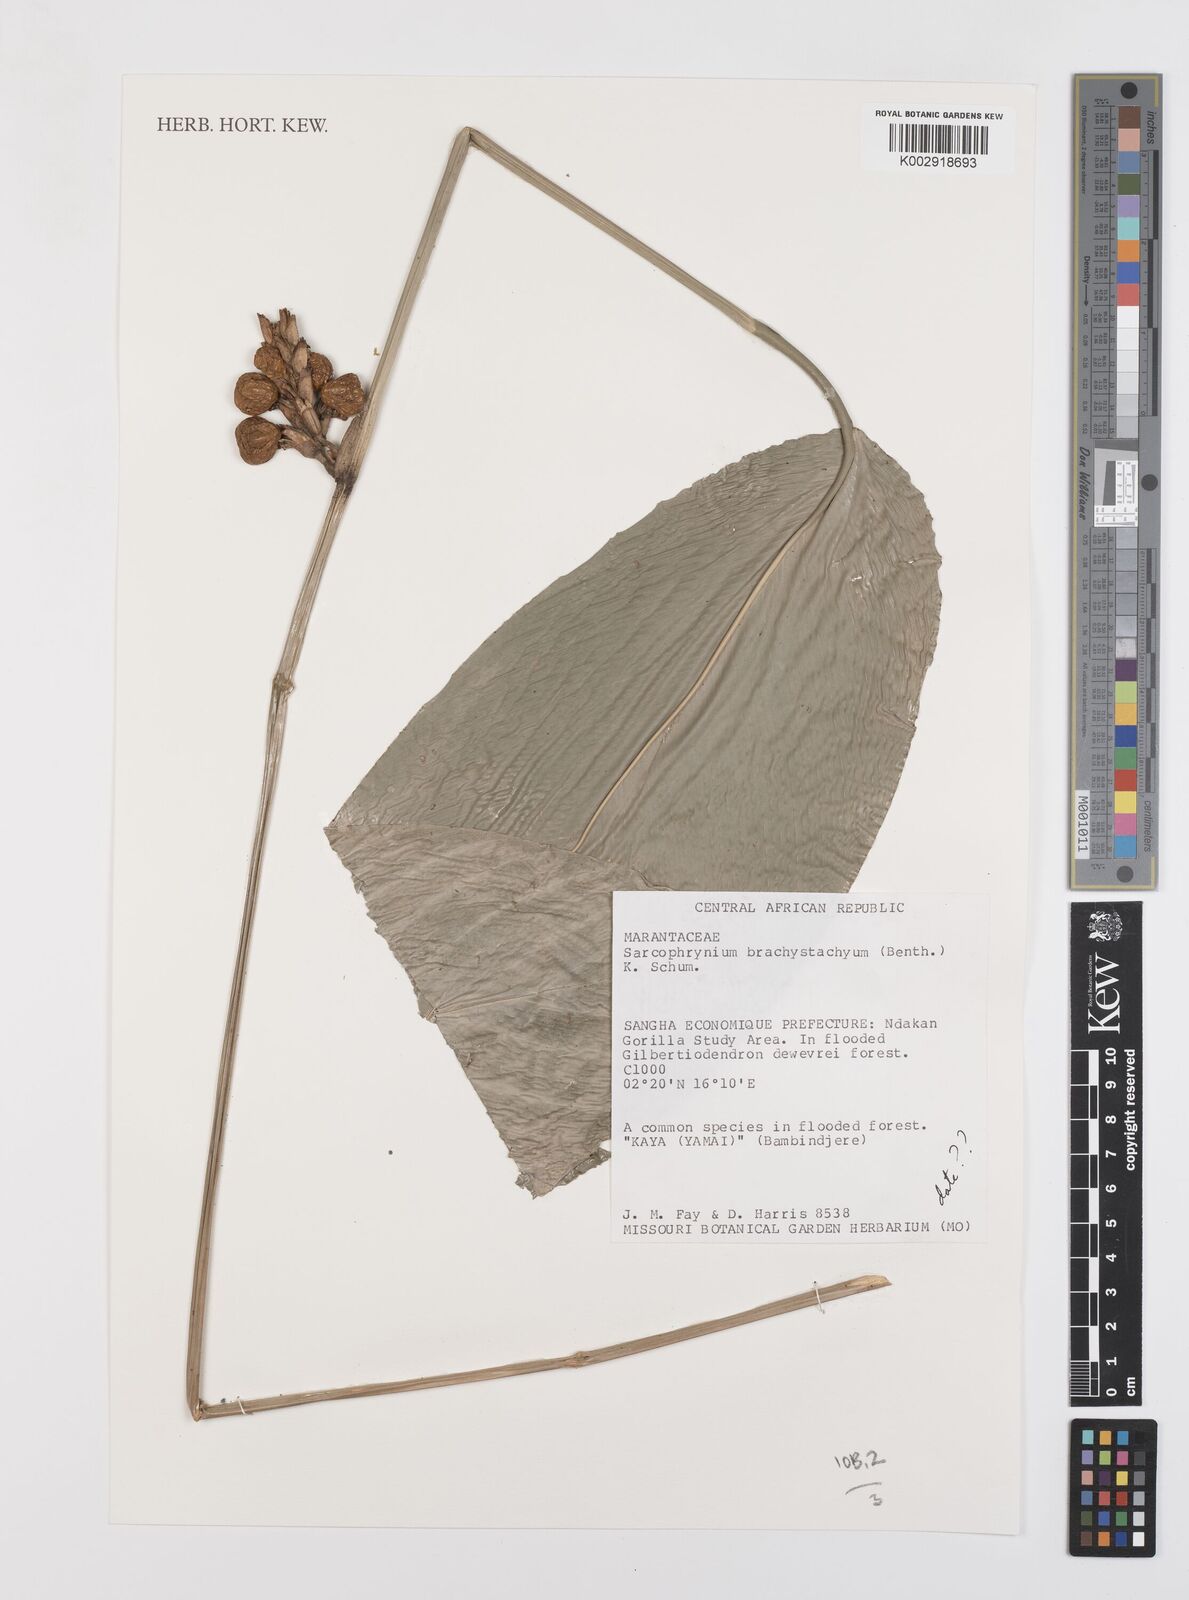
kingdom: Plantae
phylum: Tracheophyta
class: Liliopsida
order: Zingiberales
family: Marantaceae
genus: Sarcophrynium
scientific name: Sarcophrynium brachystachyum
